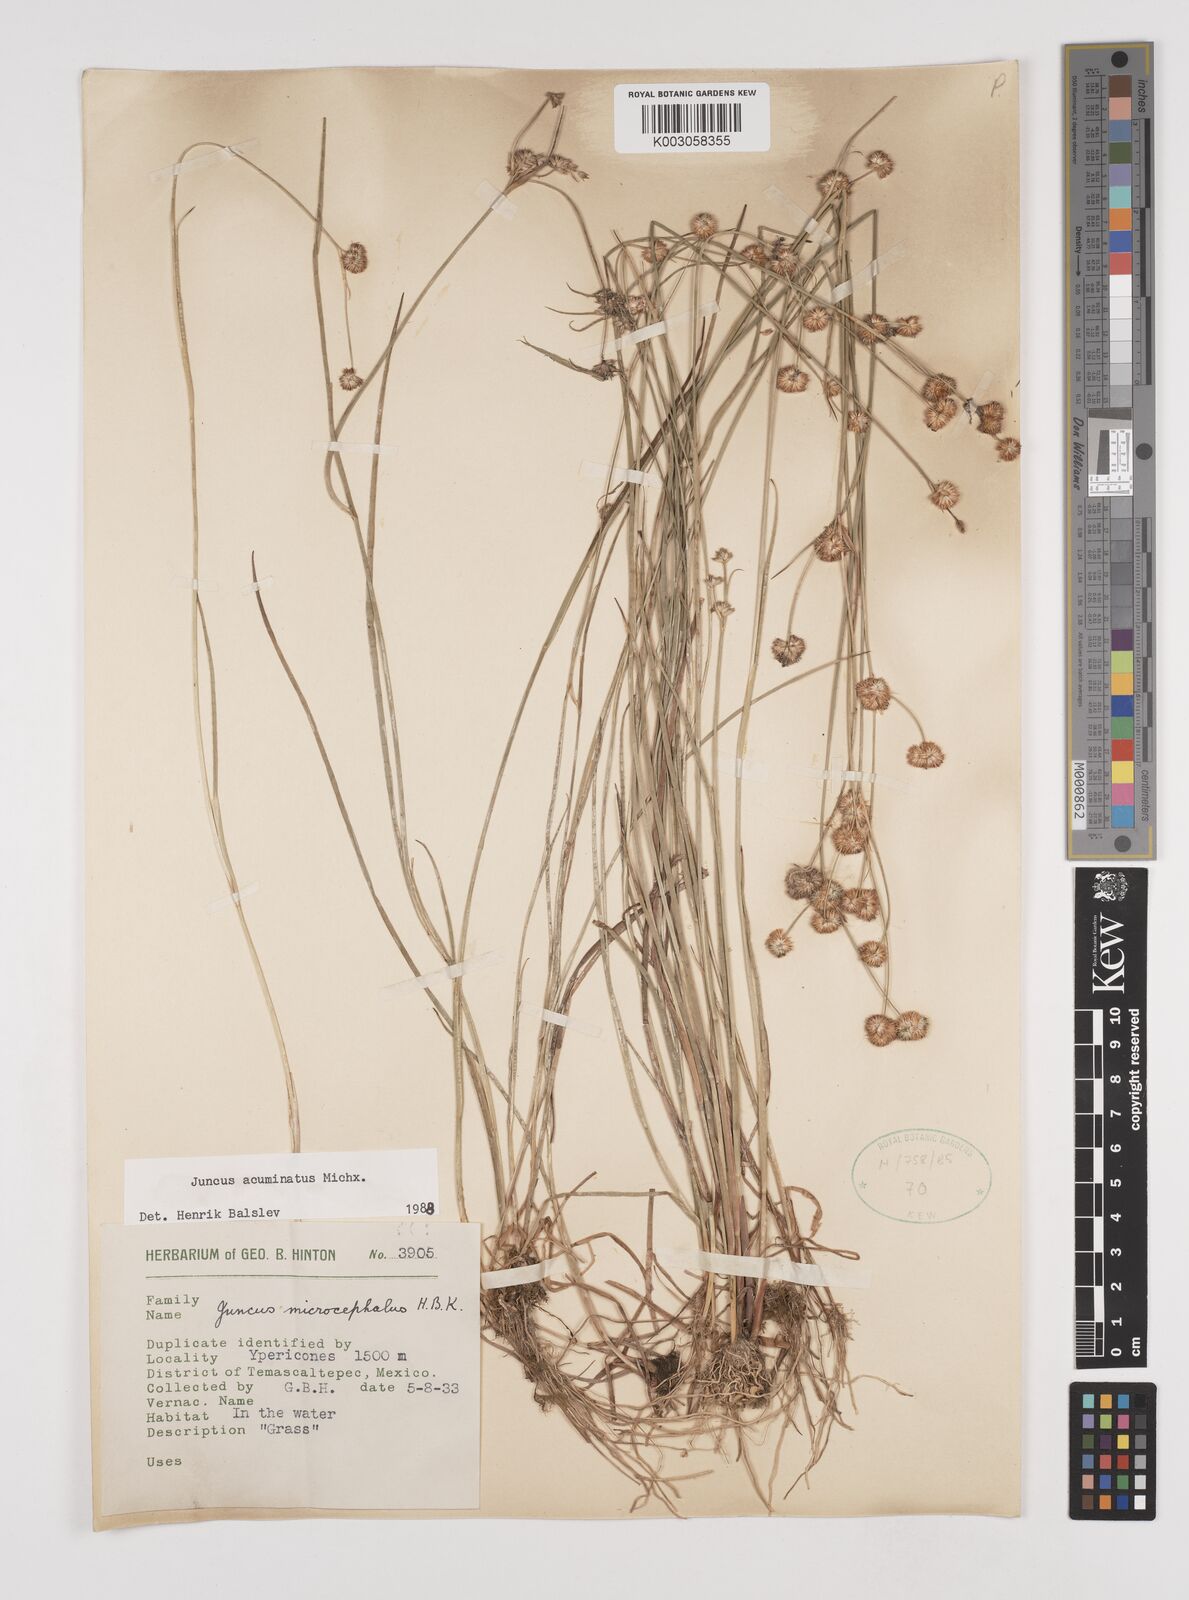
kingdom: Plantae
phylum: Tracheophyta
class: Liliopsida
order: Poales
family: Juncaceae
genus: Juncus
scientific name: Juncus acuminatus
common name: Knotty-leaved rush
